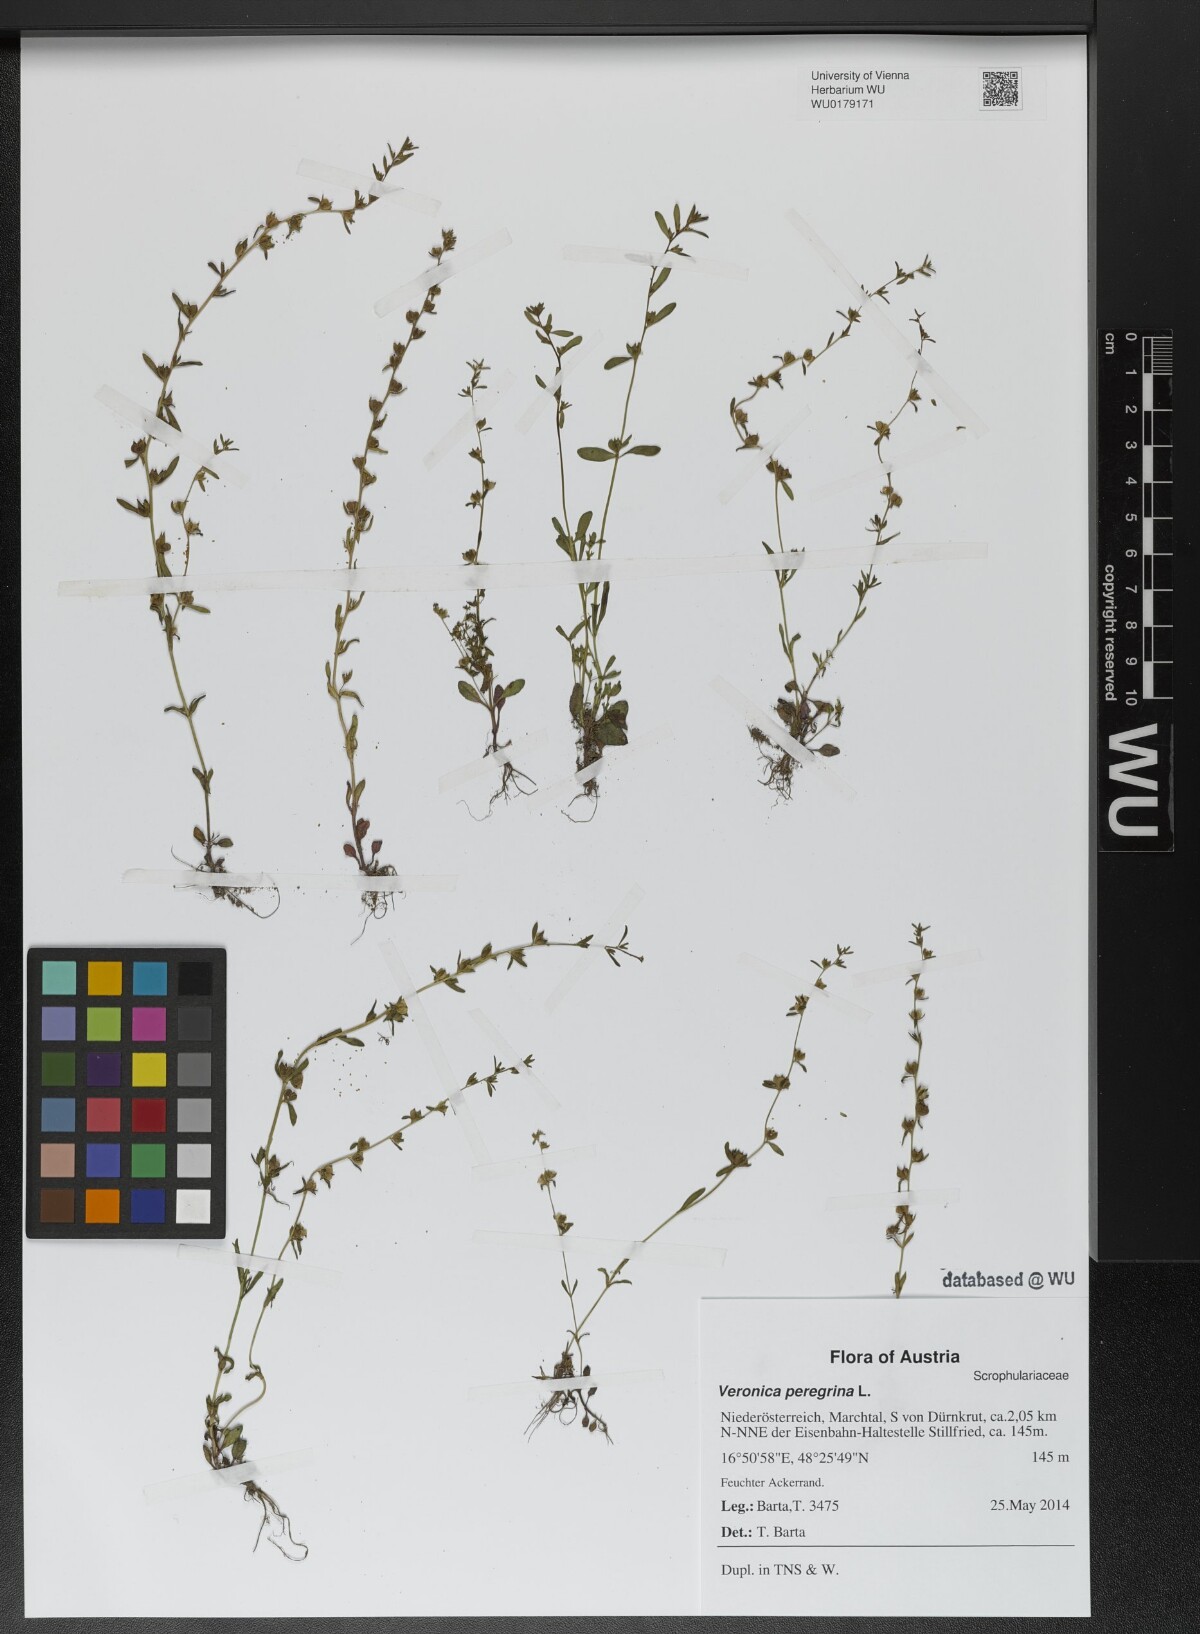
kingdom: Plantae
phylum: Tracheophyta
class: Magnoliopsida
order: Lamiales
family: Plantaginaceae
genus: Veronica
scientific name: Veronica peregrina
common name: Neckweed
